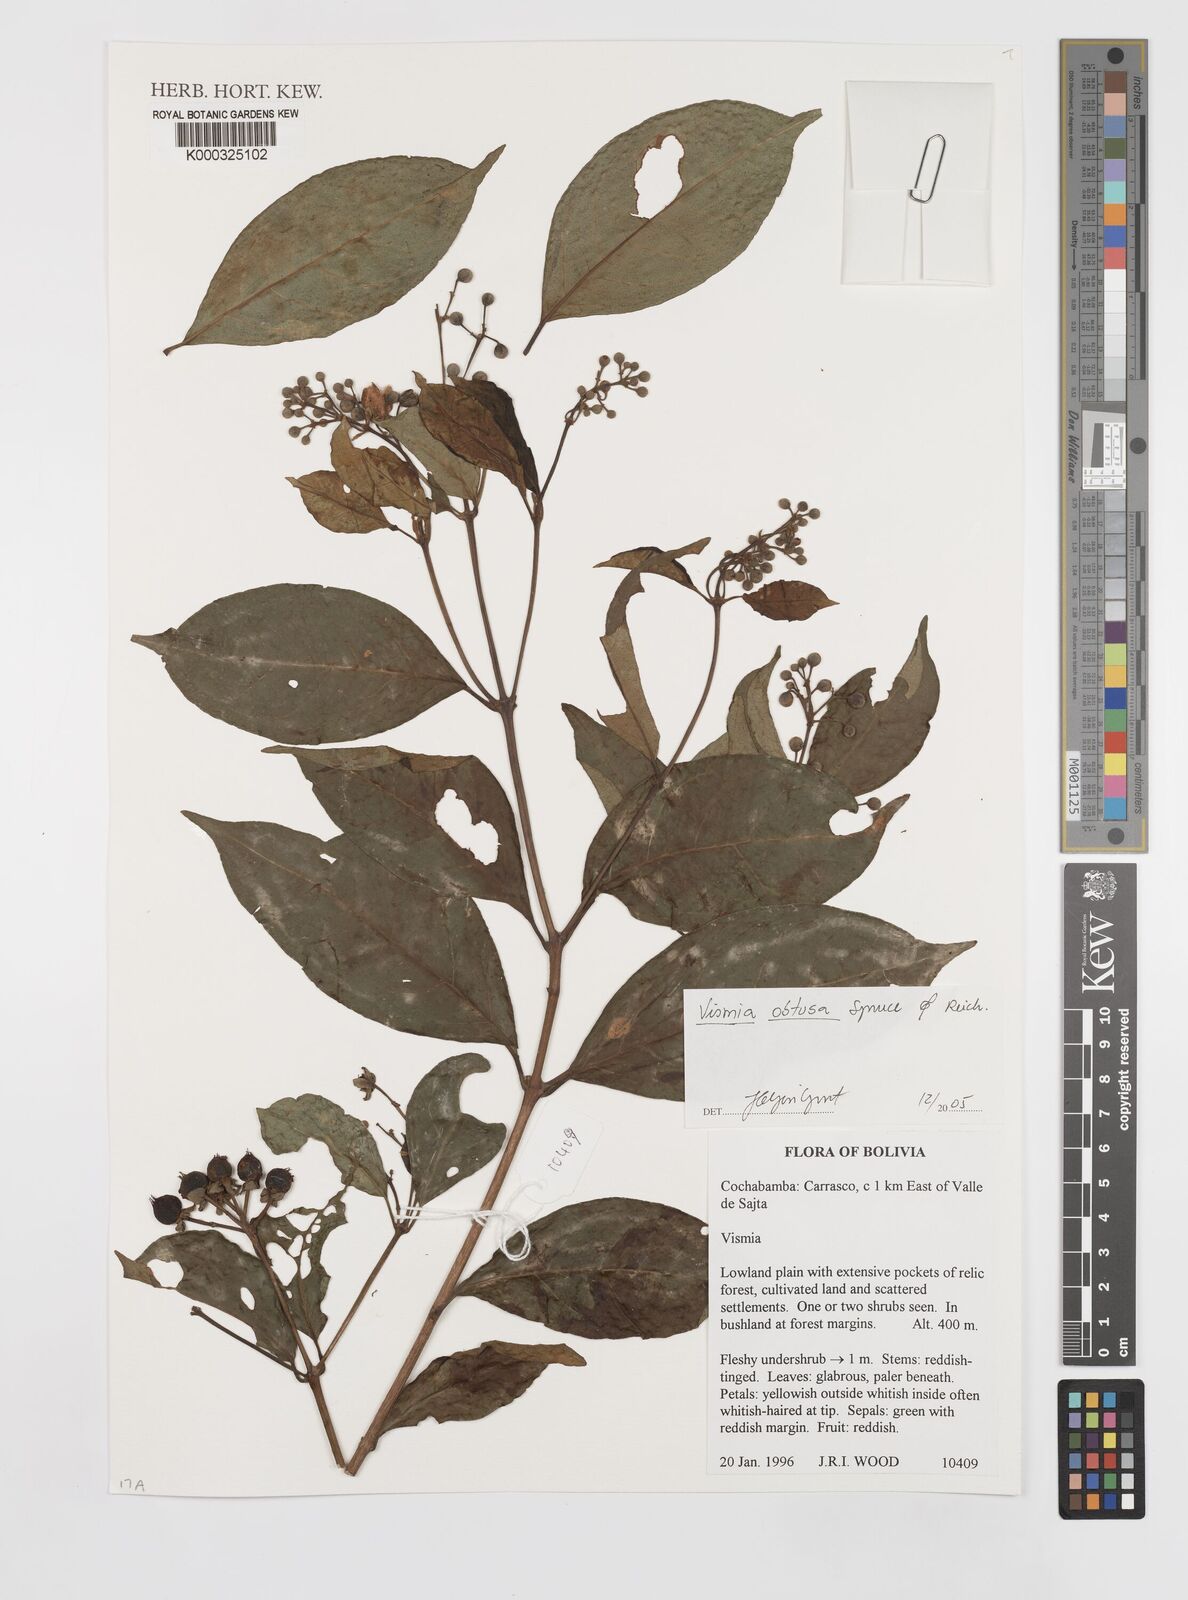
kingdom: Plantae
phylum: Tracheophyta
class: Magnoliopsida
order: Malpighiales
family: Hypericaceae
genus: Vismia
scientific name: Vismia obtusa
